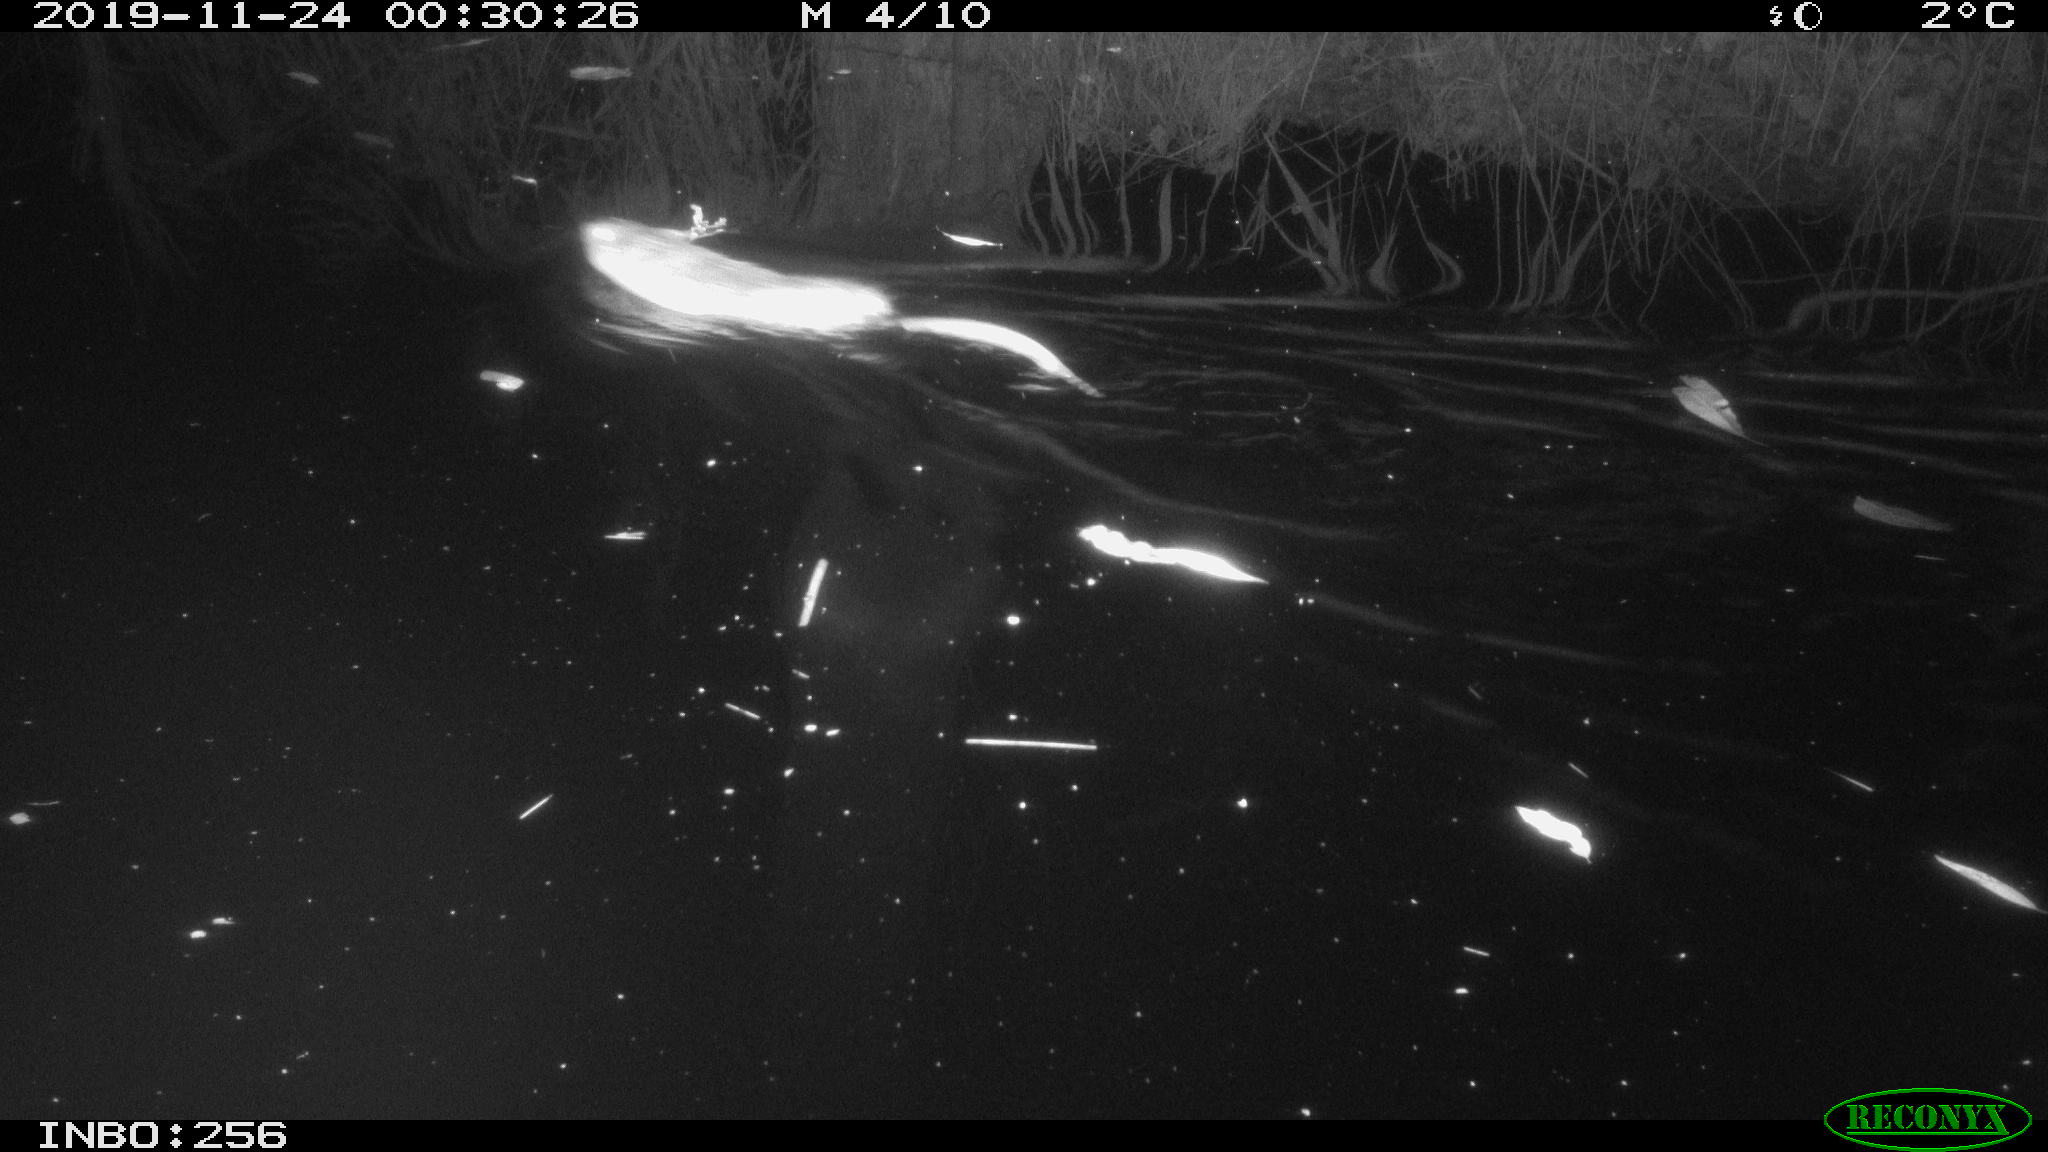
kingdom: Animalia
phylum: Chordata
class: Mammalia
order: Rodentia
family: Cricetidae
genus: Ondatra
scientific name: Ondatra zibethicus
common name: Muskrat
